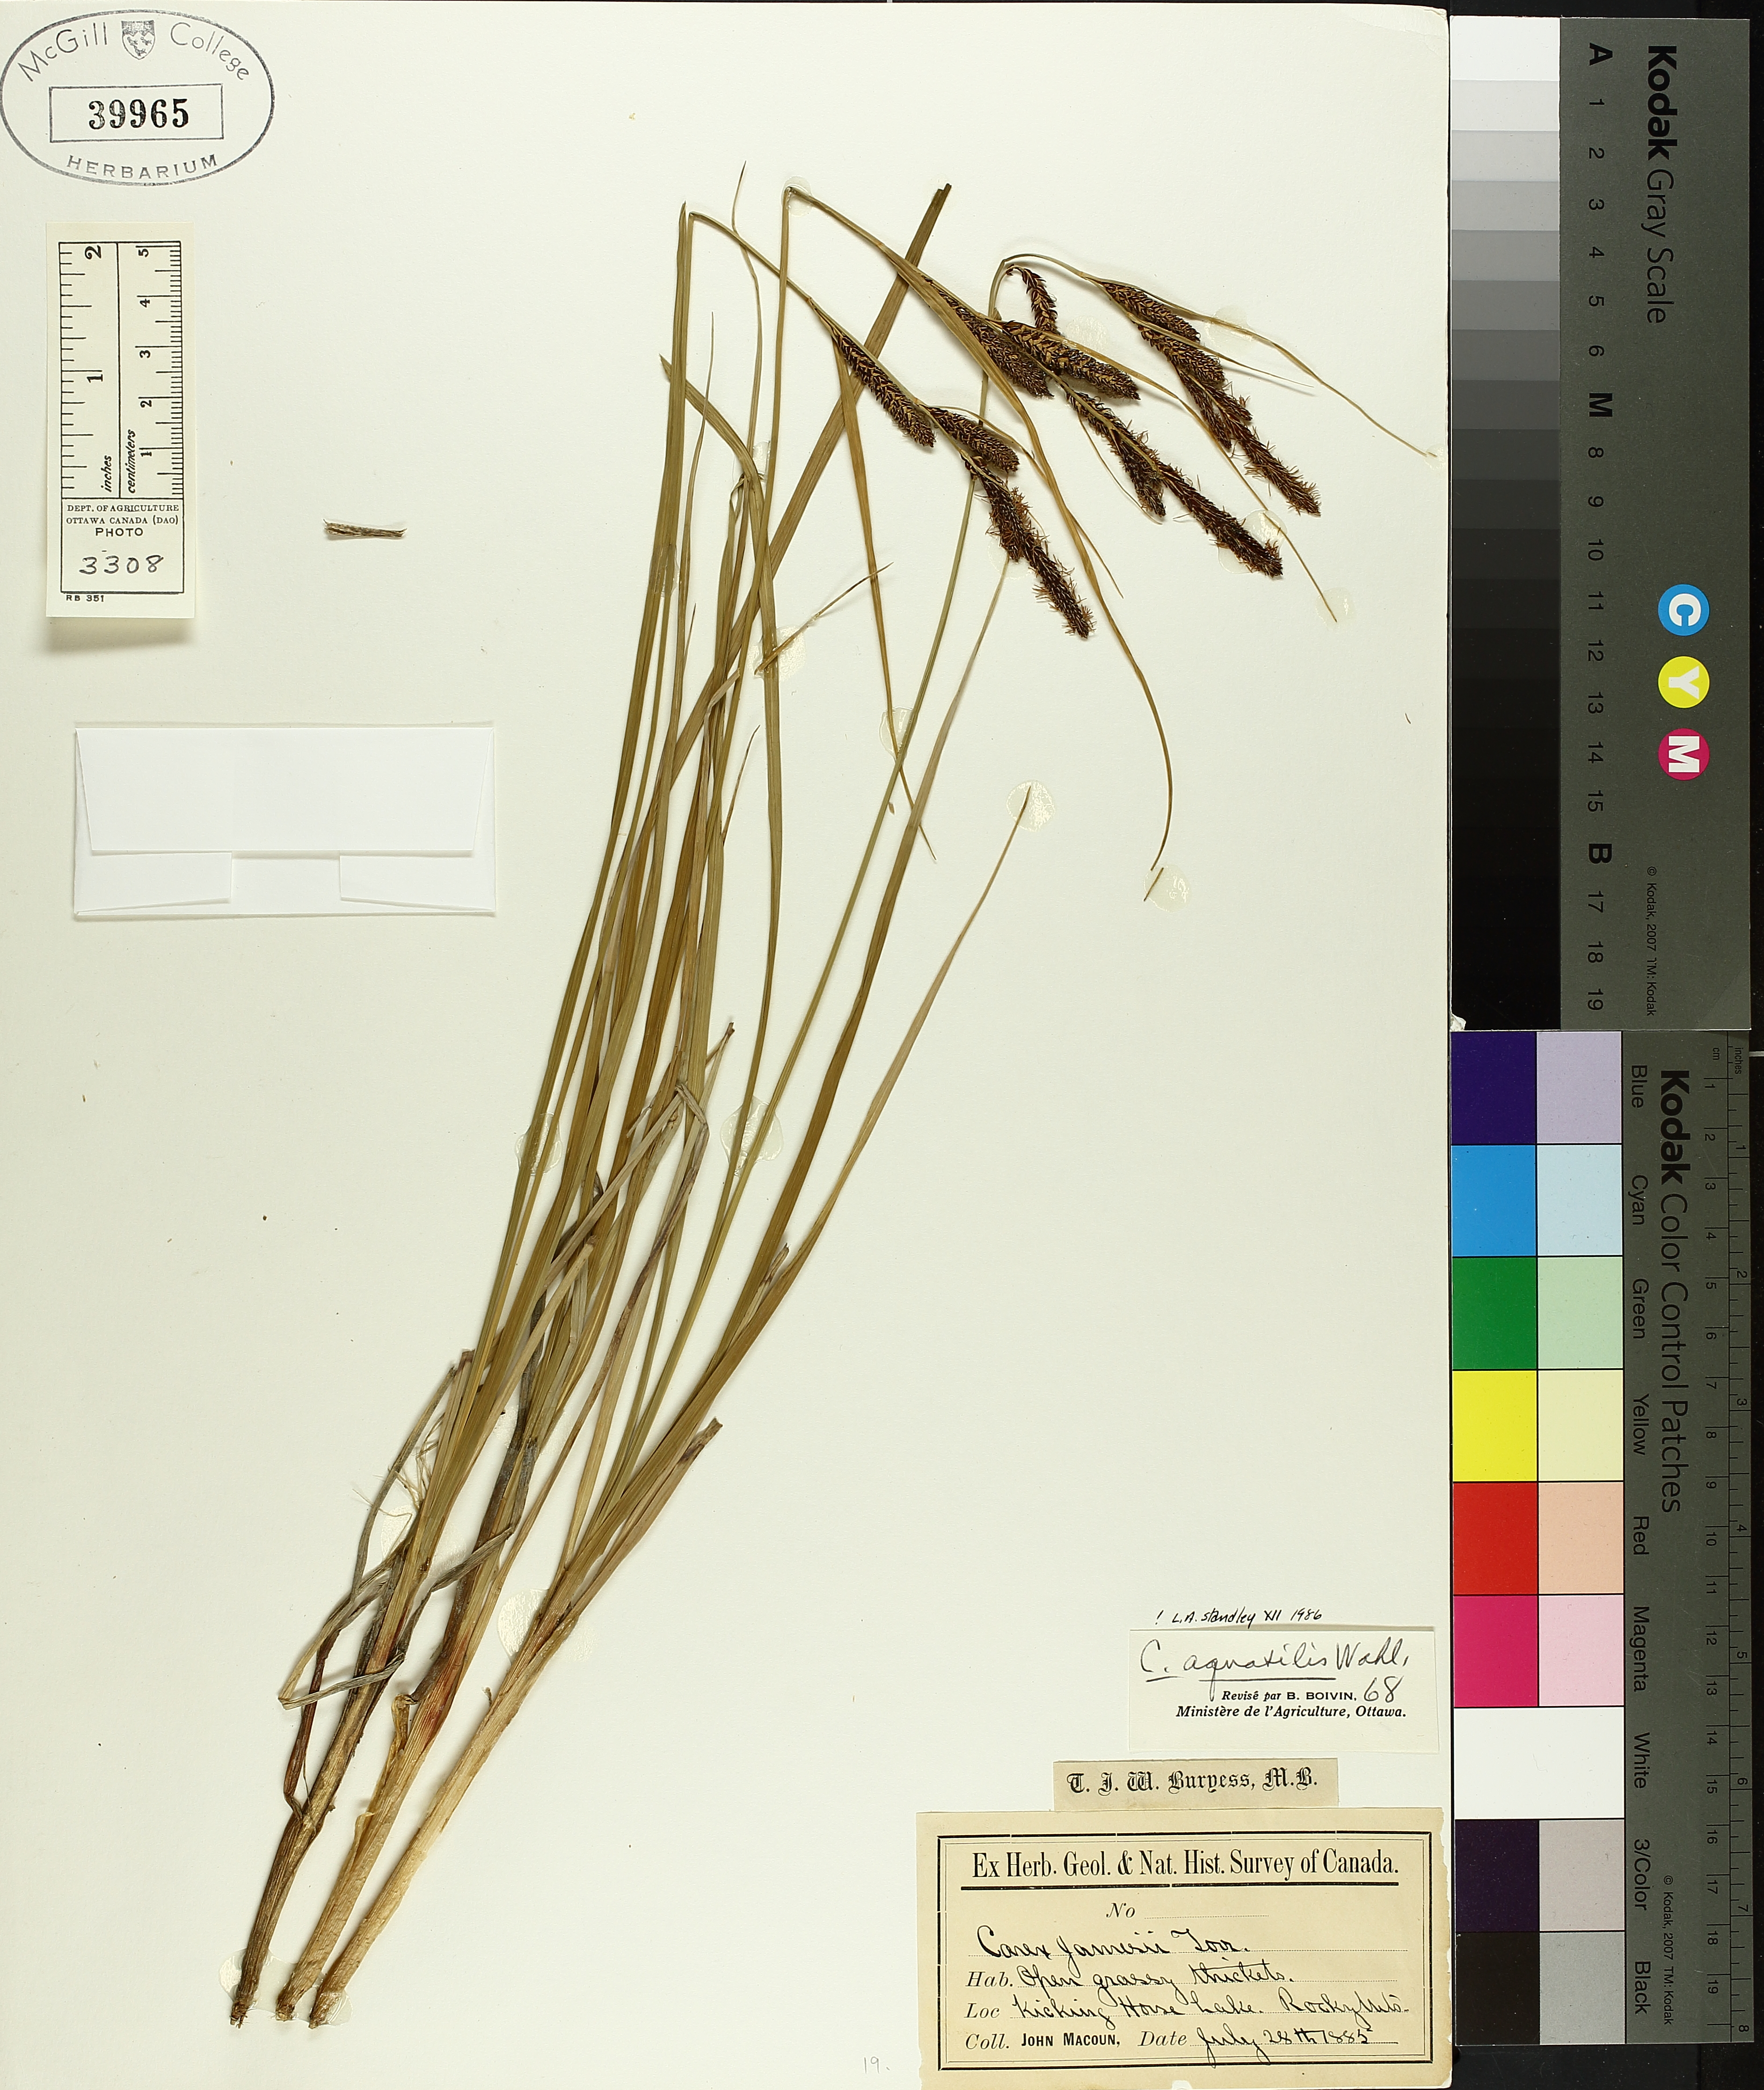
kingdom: Plantae
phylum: Tracheophyta
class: Liliopsida
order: Poales
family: Cyperaceae
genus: Carex
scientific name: Carex aquatilis
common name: Water sedge
